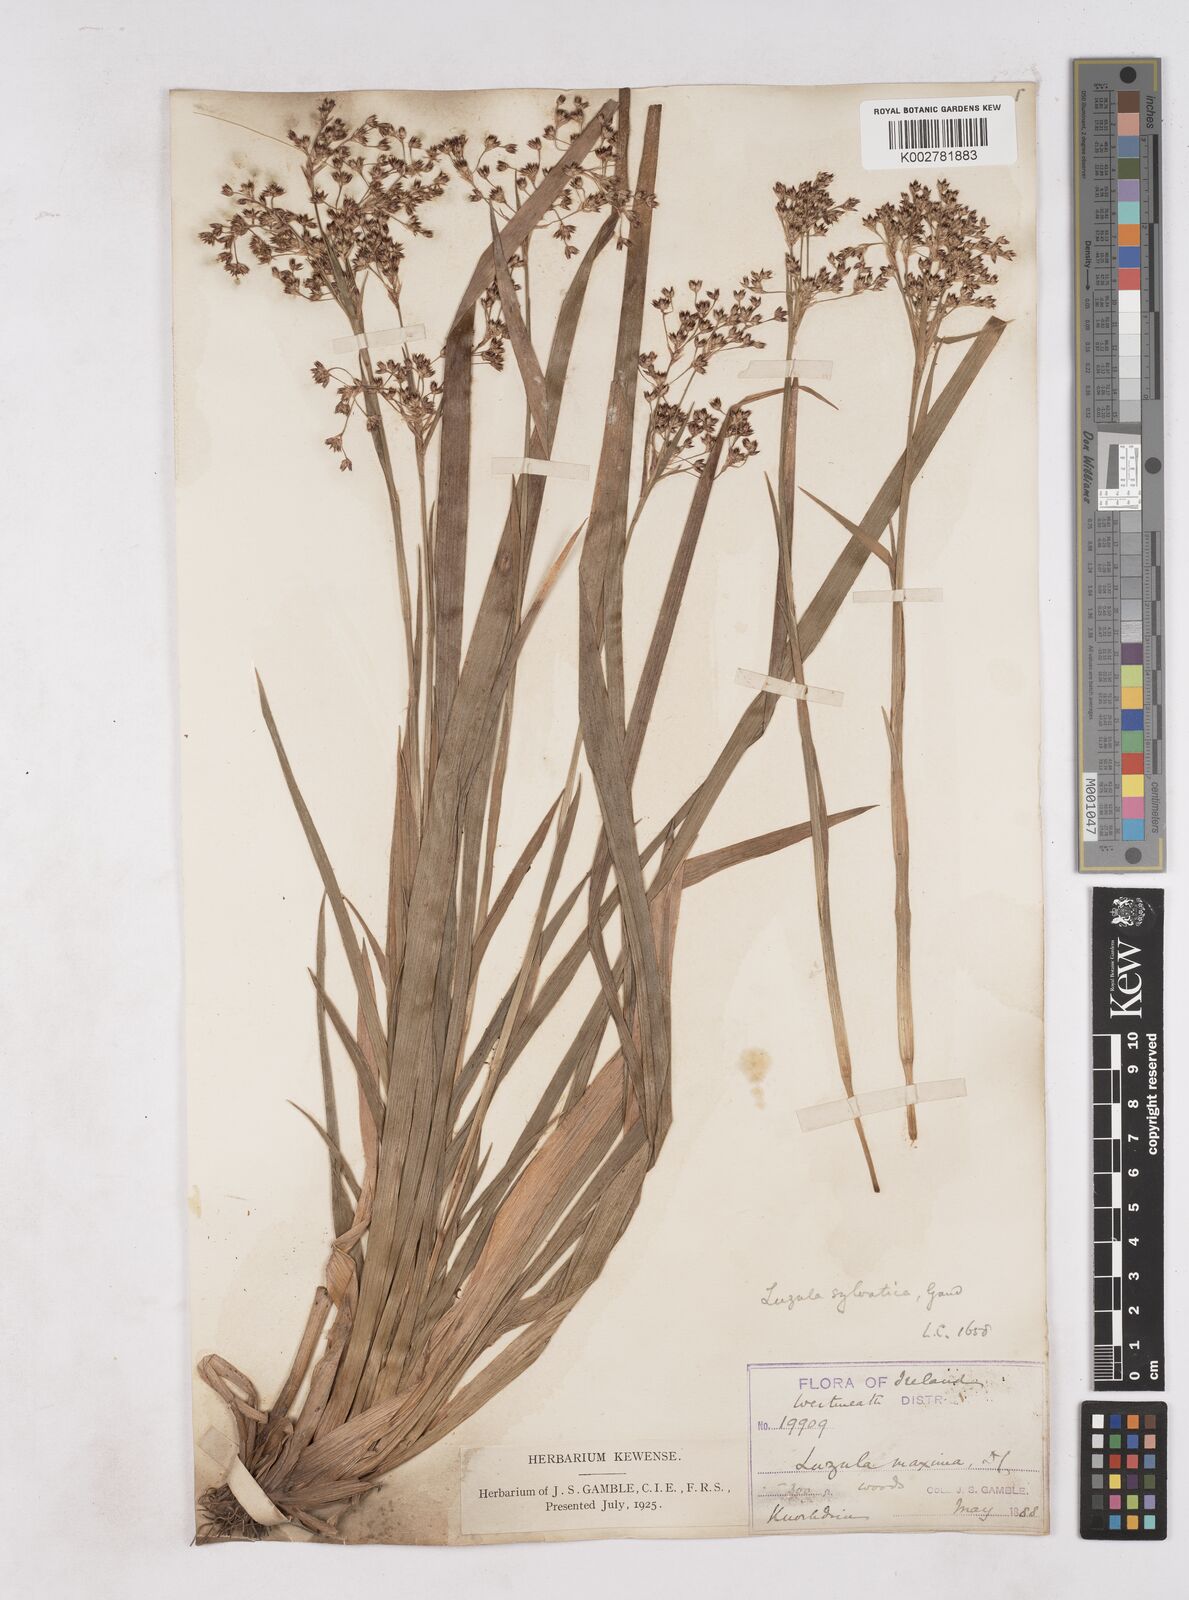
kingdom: Plantae
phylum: Tracheophyta
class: Liliopsida
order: Poales
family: Juncaceae
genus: Luzula
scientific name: Luzula sylvatica
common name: Great wood-rush
